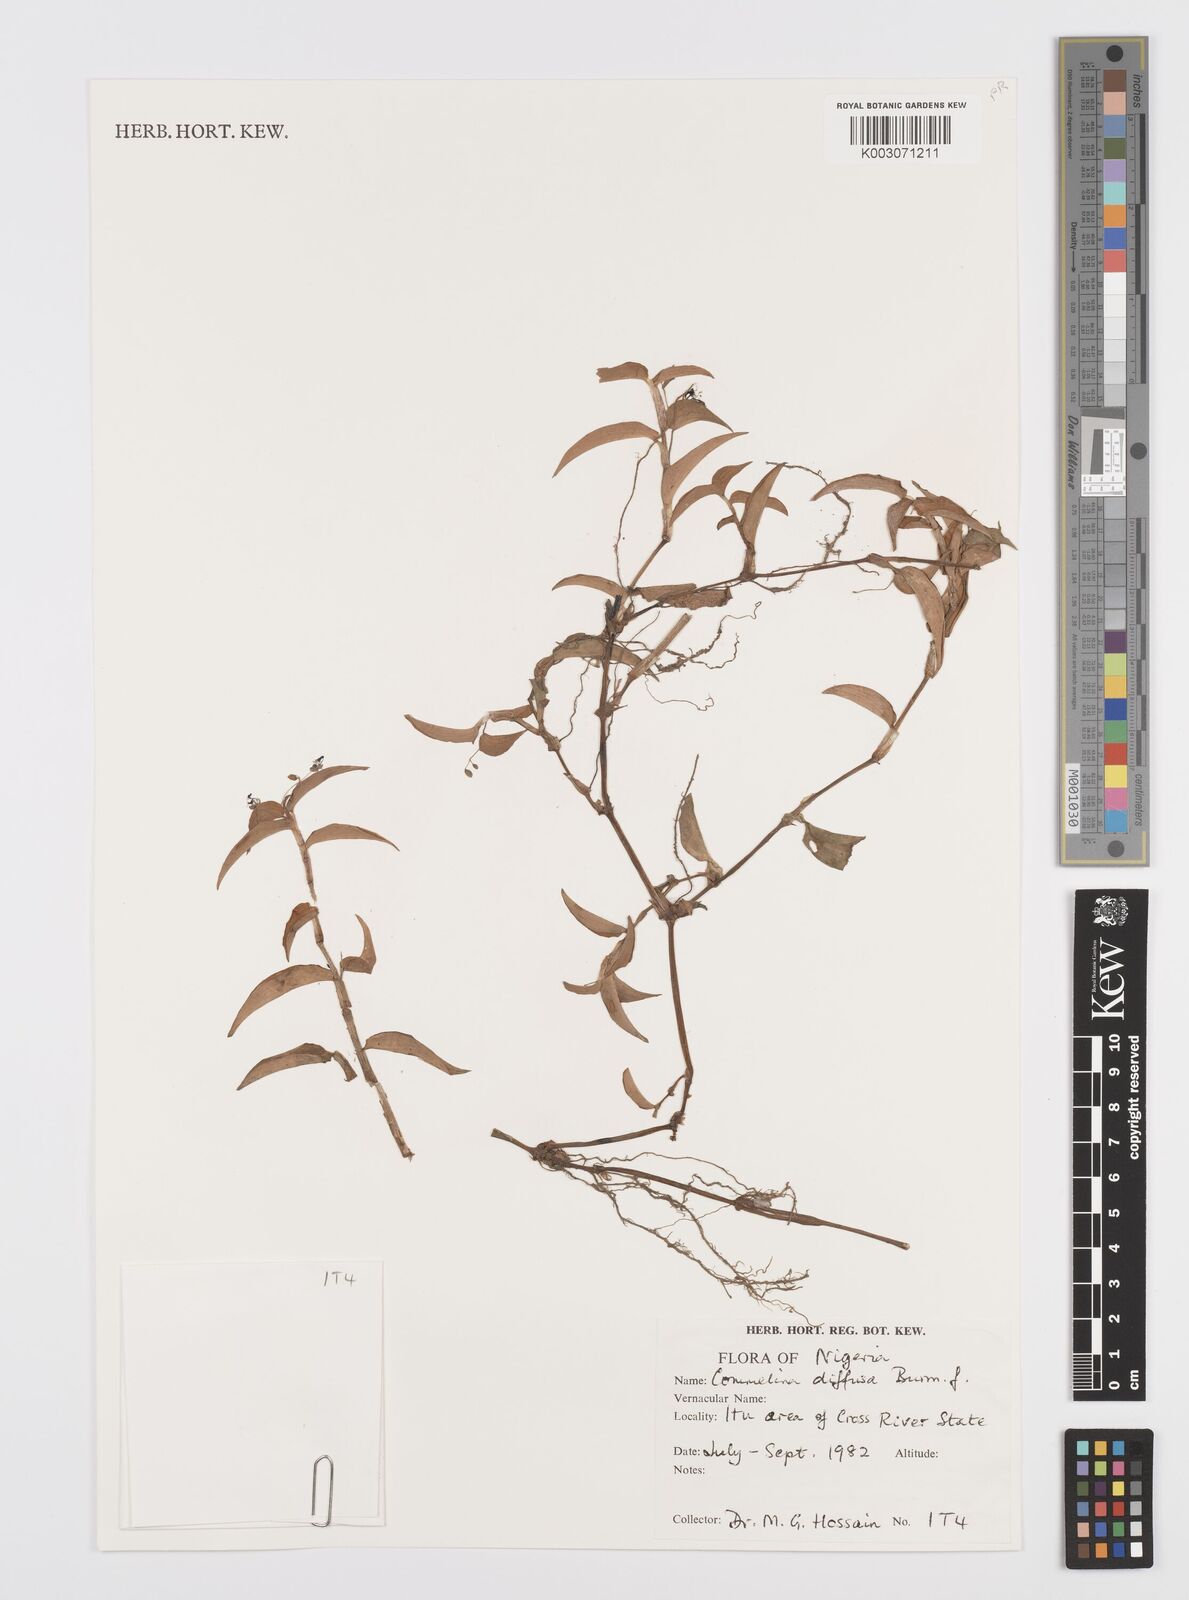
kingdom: Plantae
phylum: Tracheophyta
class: Liliopsida
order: Commelinales
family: Commelinaceae
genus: Commelina
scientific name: Commelina diffusa
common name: Climbing dayflower
